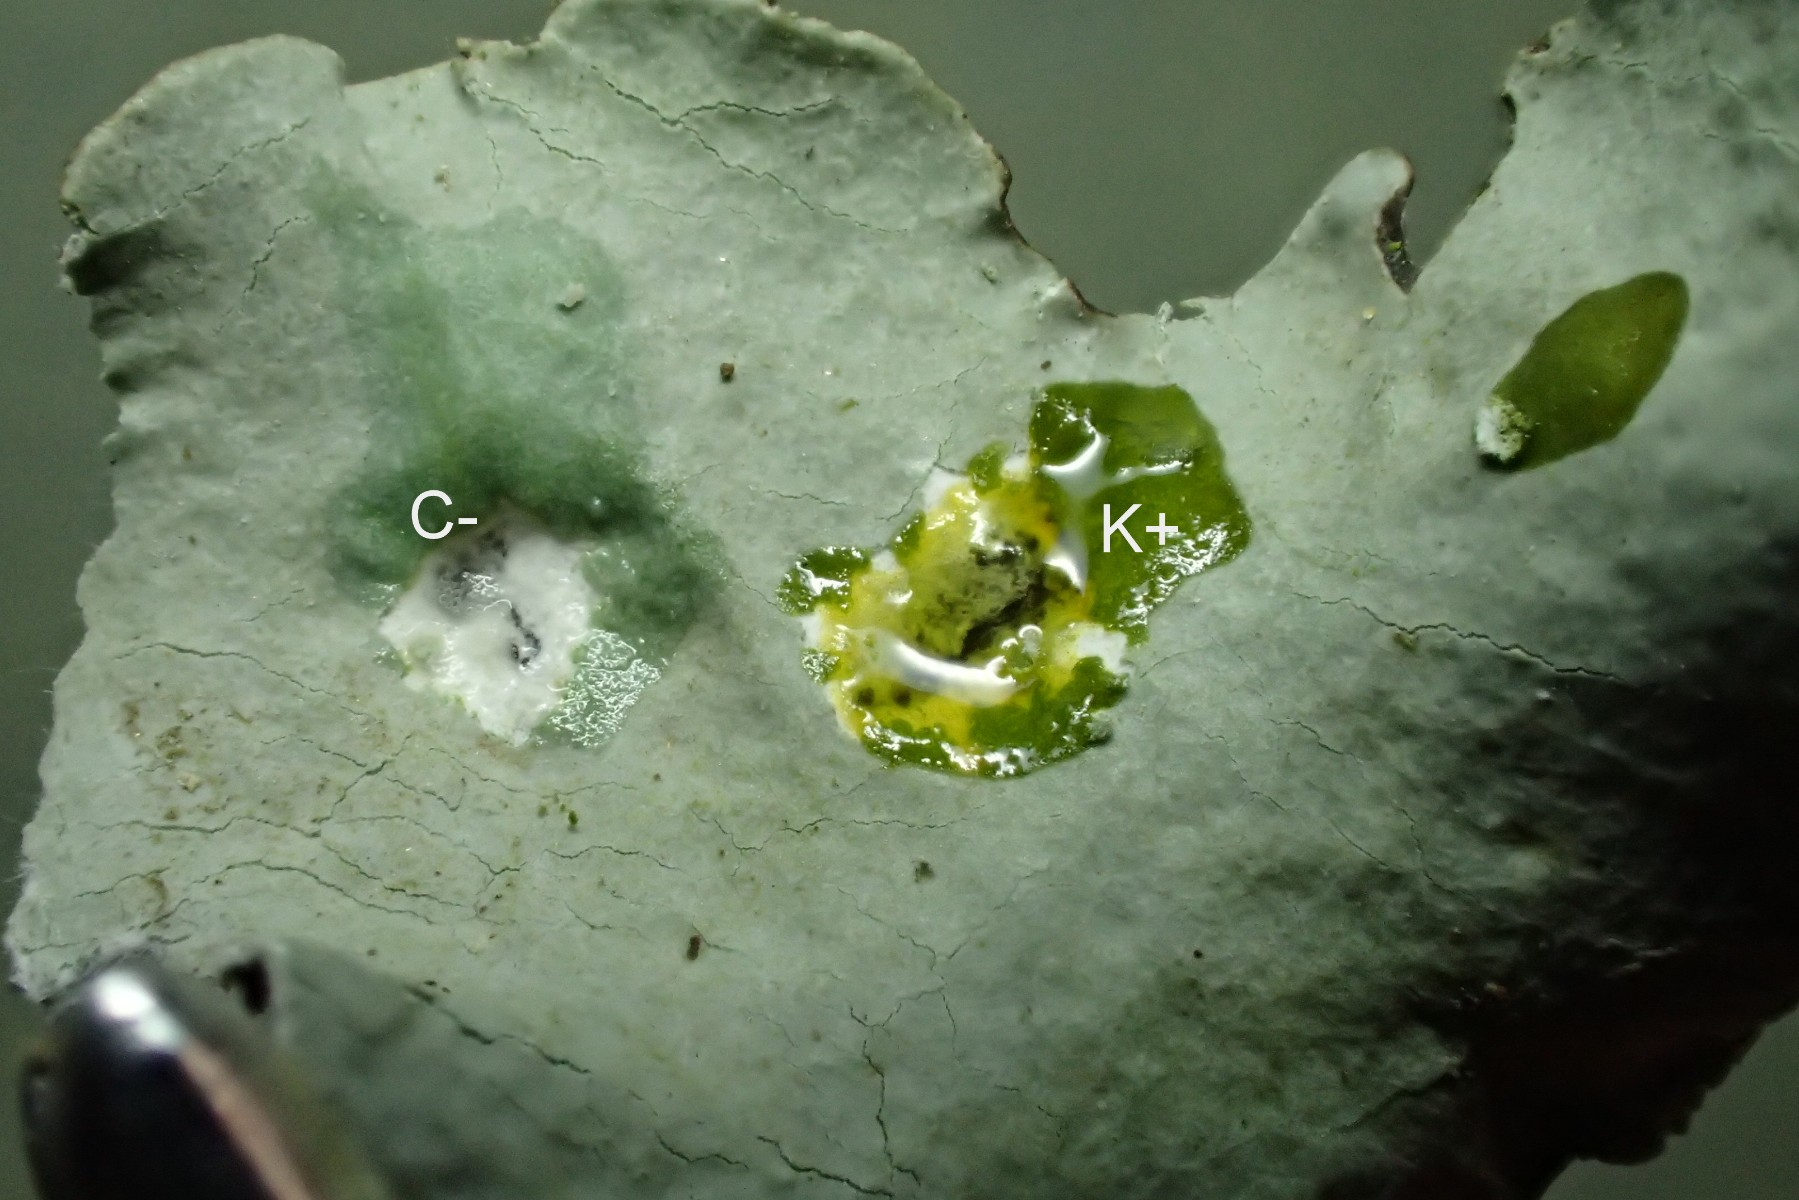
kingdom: Fungi
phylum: Ascomycota
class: Lecanoromycetes
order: Lecanorales
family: Parmeliaceae
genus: Parmotrema
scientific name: Parmotrema perlatum
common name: trådet skållav
